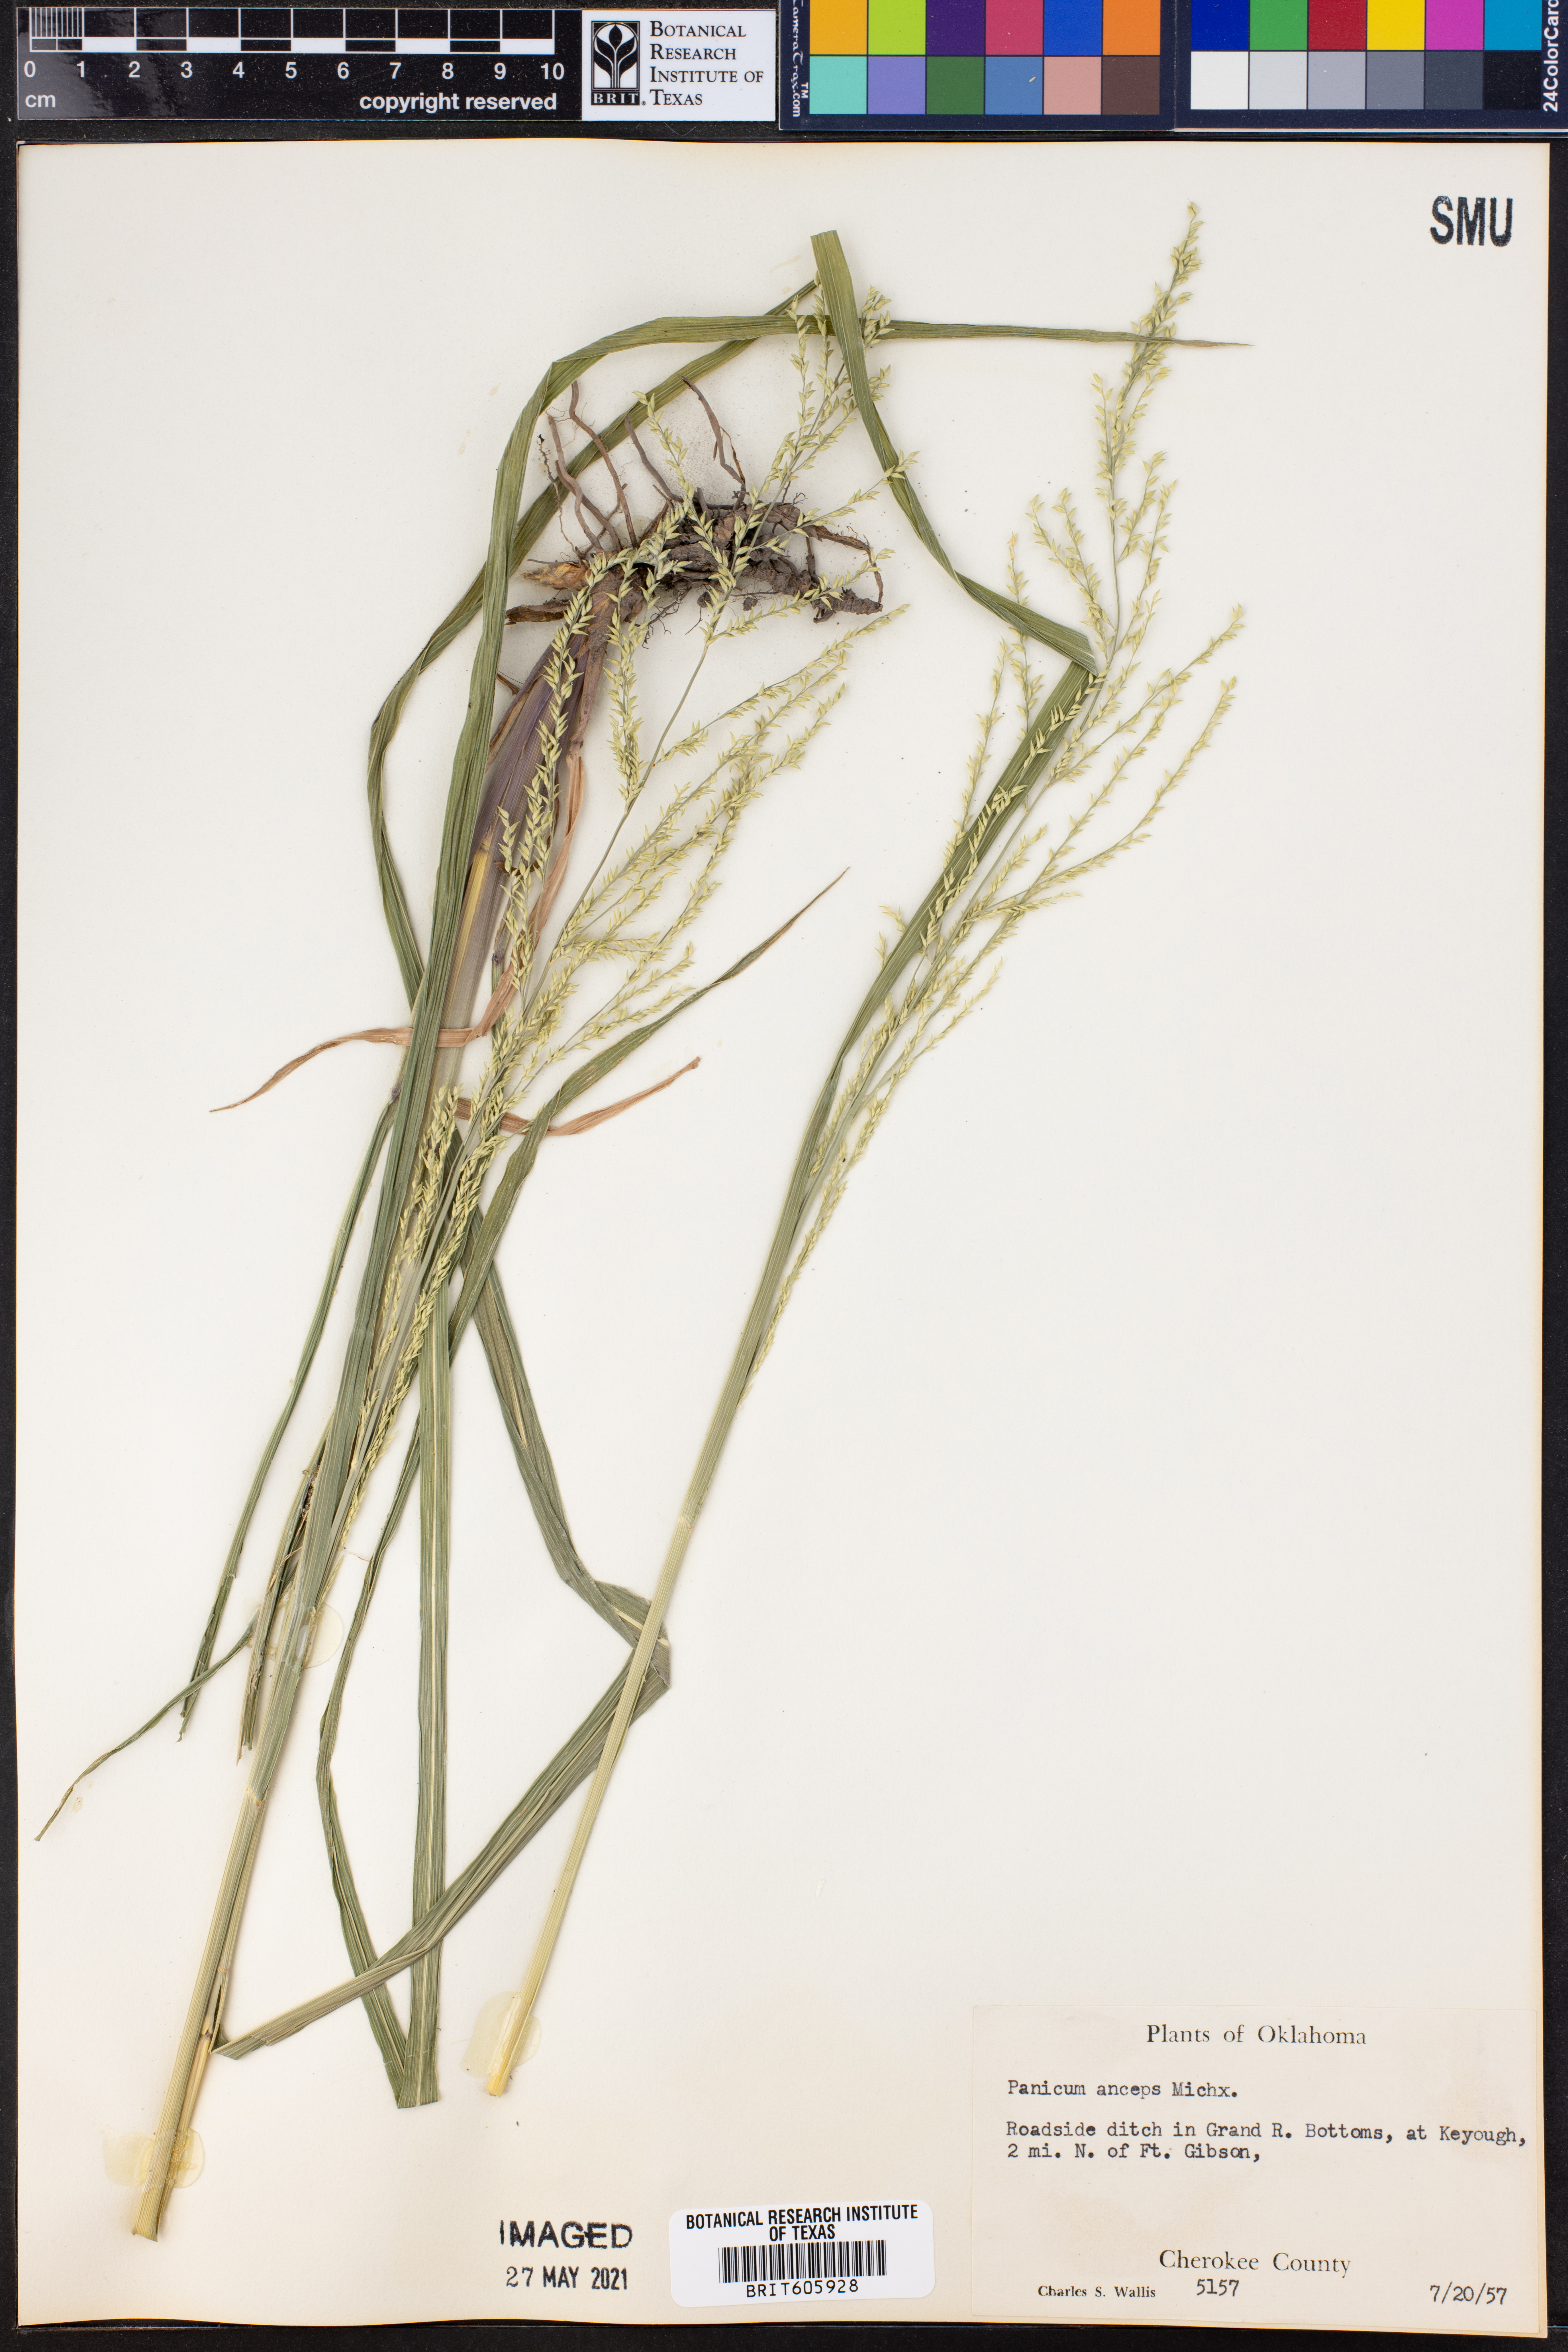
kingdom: Plantae
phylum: Tracheophyta
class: Liliopsida
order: Poales
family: Poaceae
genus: Coleataenia
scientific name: Coleataenia anceps
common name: Beaked panic grass
